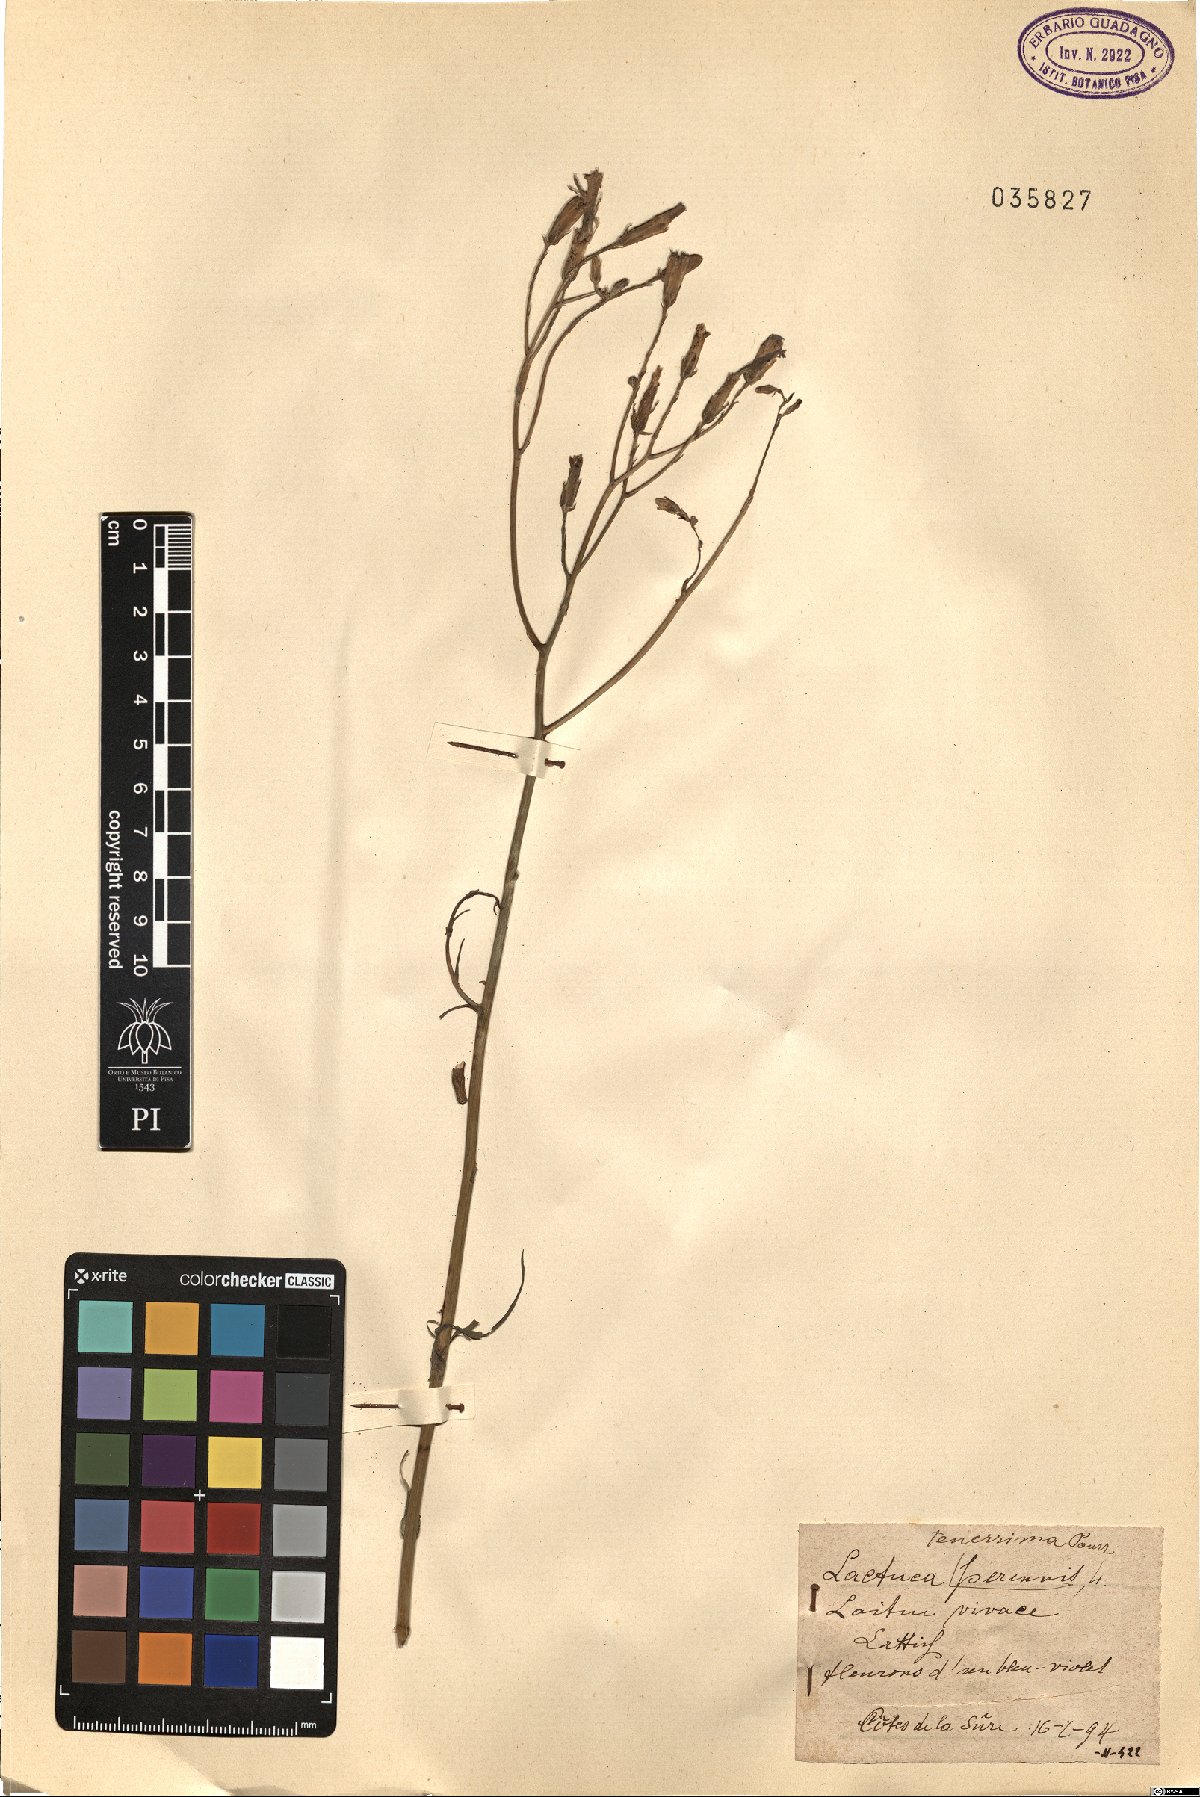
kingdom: Plantae
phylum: Tracheophyta
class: Magnoliopsida
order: Asterales
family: Asteraceae
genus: Lactuca
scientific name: Lactuca tenerrima
